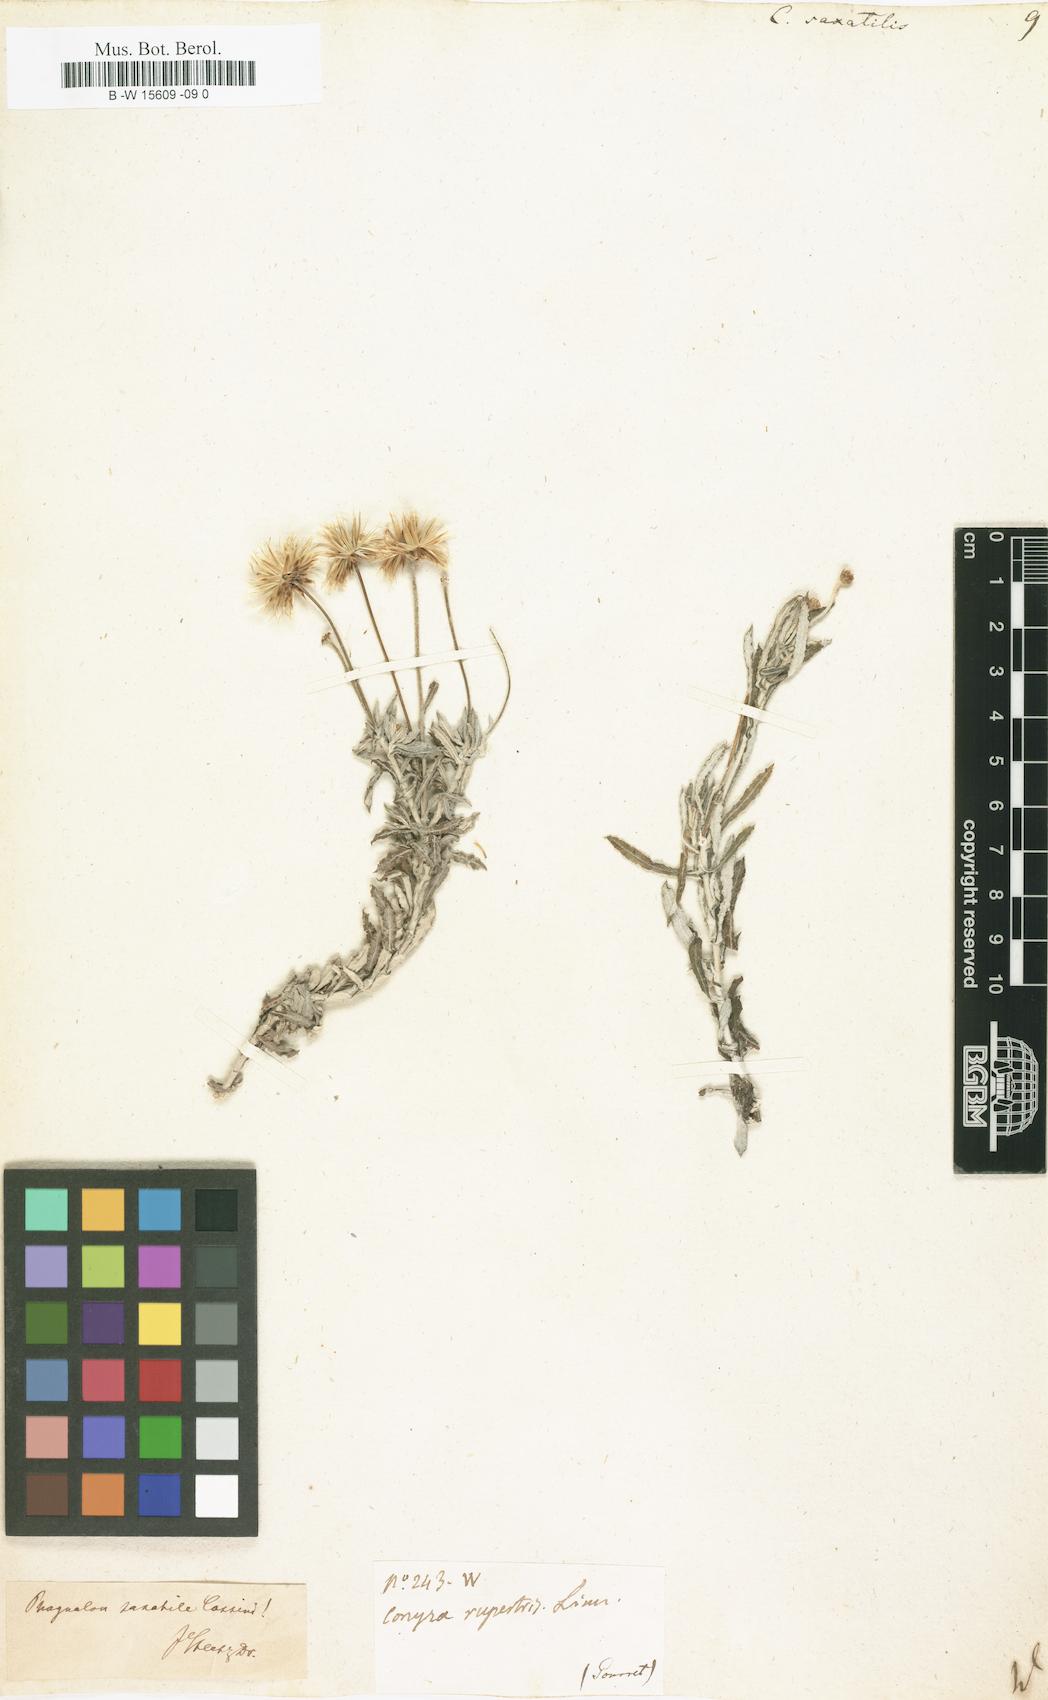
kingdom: Plantae
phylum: Tracheophyta
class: Magnoliopsida
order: Asterales
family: Asteraceae
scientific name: Asteraceae
